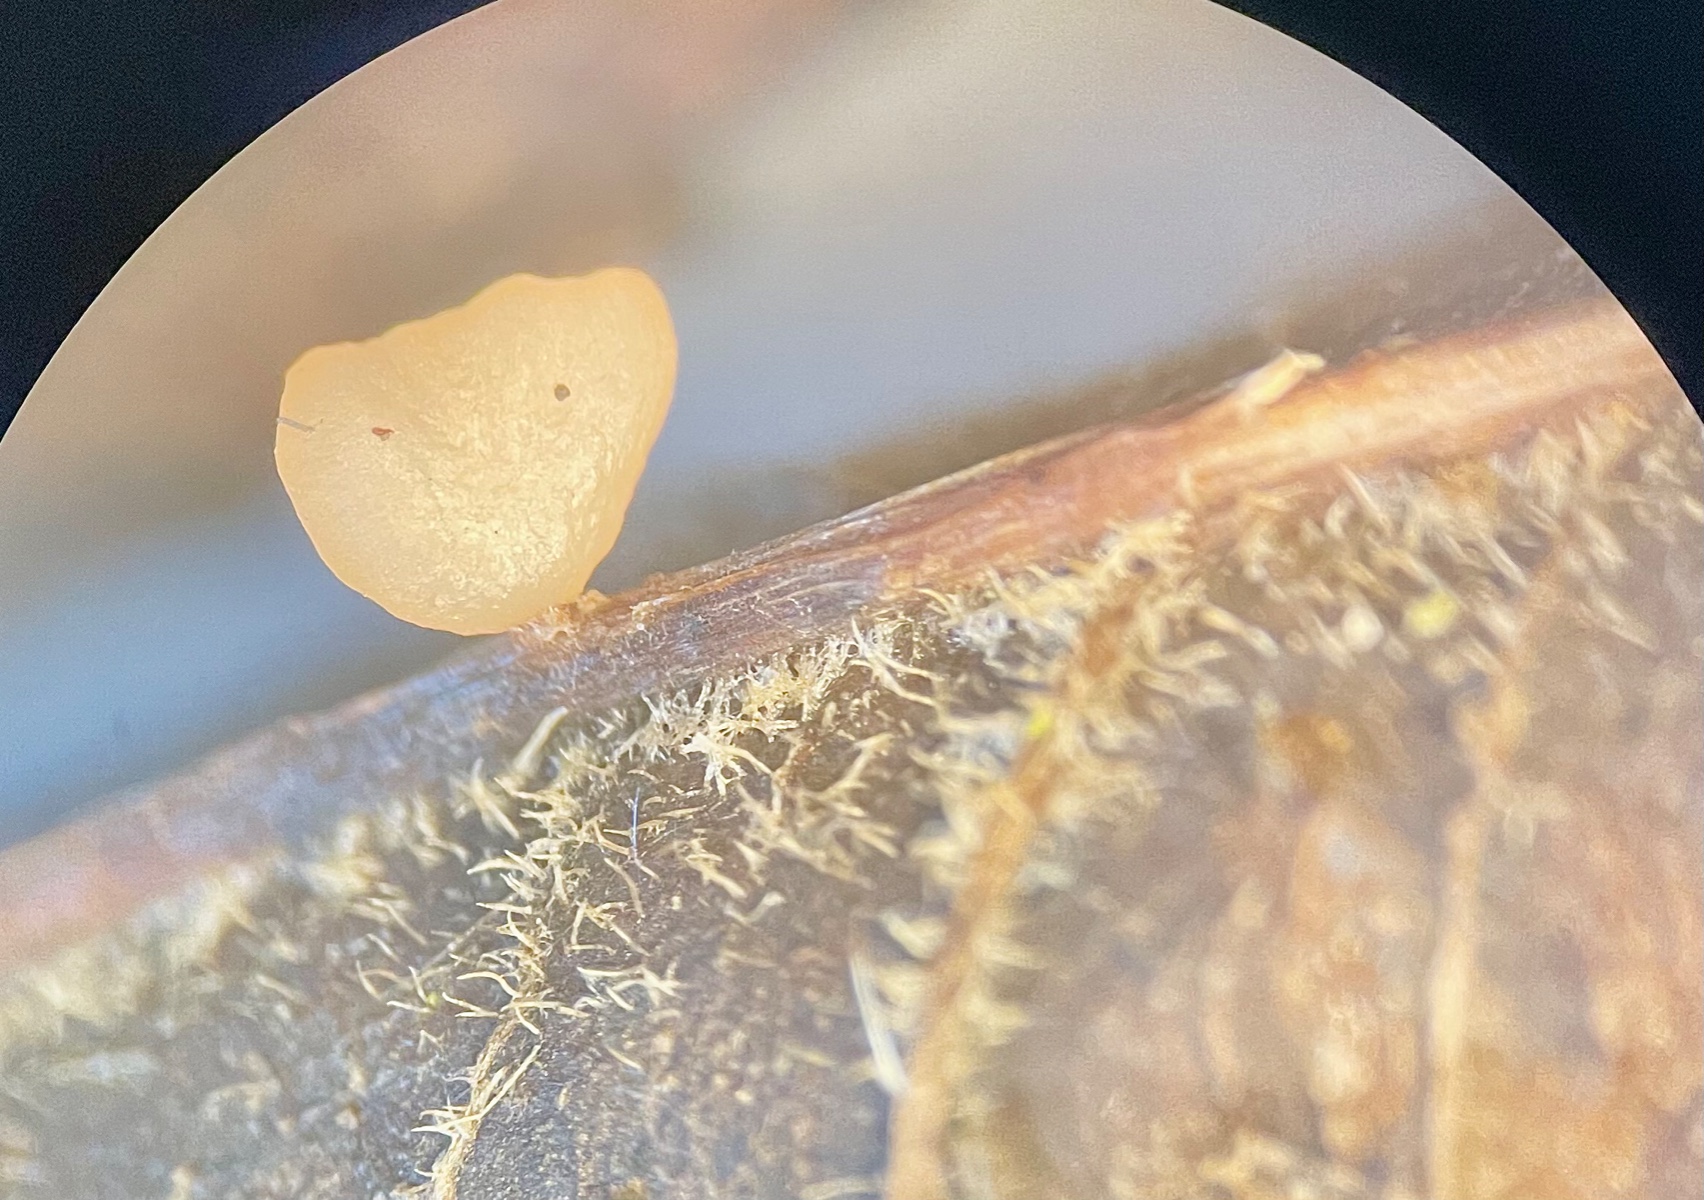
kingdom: Fungi
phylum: Basidiomycota
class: Agaricomycetes
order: Agaricales
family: Typhulaceae
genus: Macrotyphula
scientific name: Macrotyphula phacorrhiza
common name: lang rørkølle
